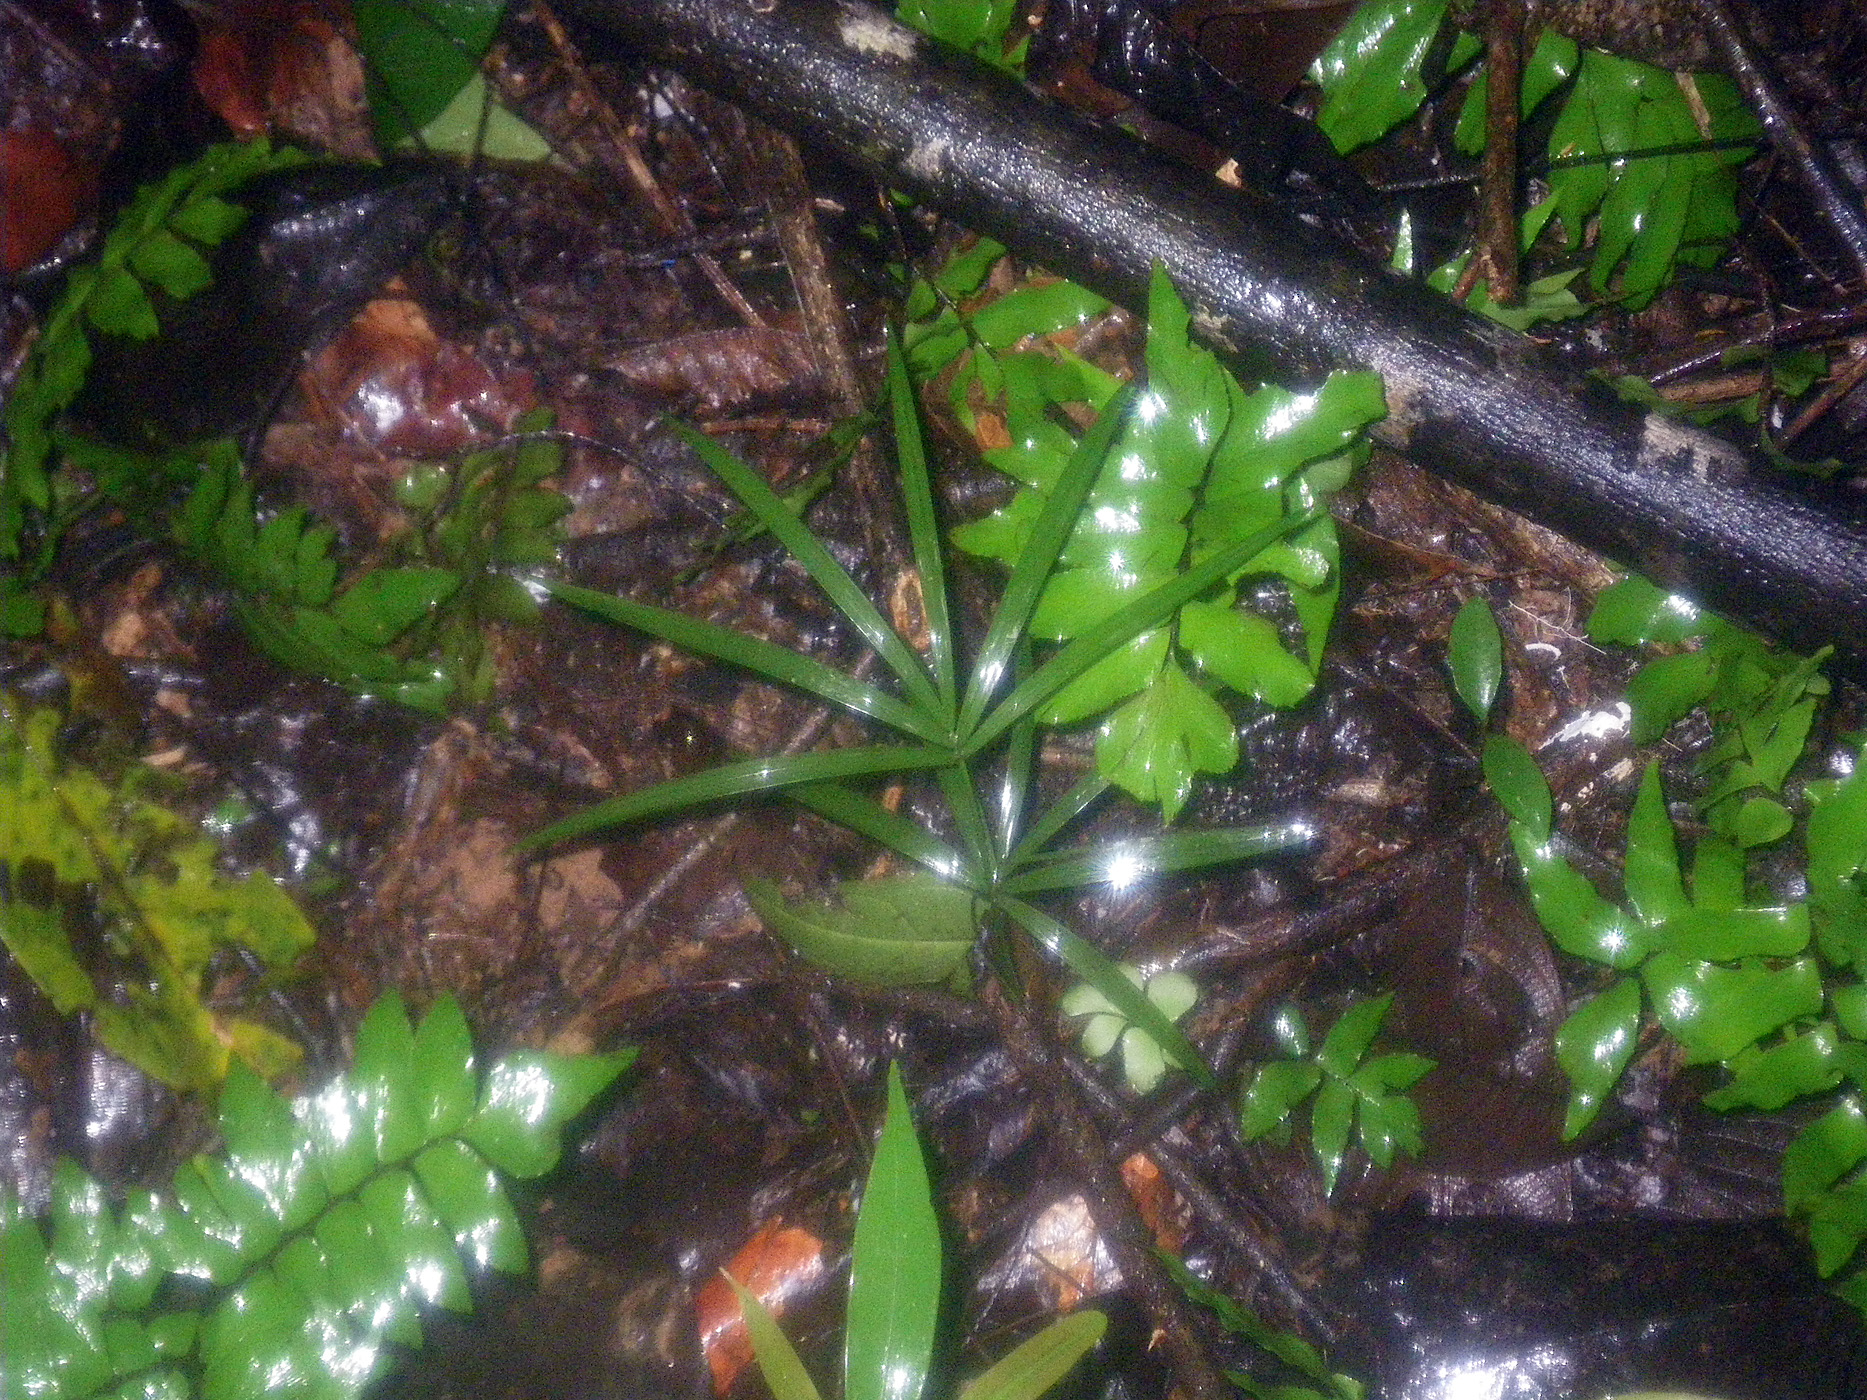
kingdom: Plantae
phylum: Tracheophyta
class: Liliopsida
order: Arecales
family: Arecaceae
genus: Euterpe
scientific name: Euterpe precatoria
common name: Mountain-cabbage
